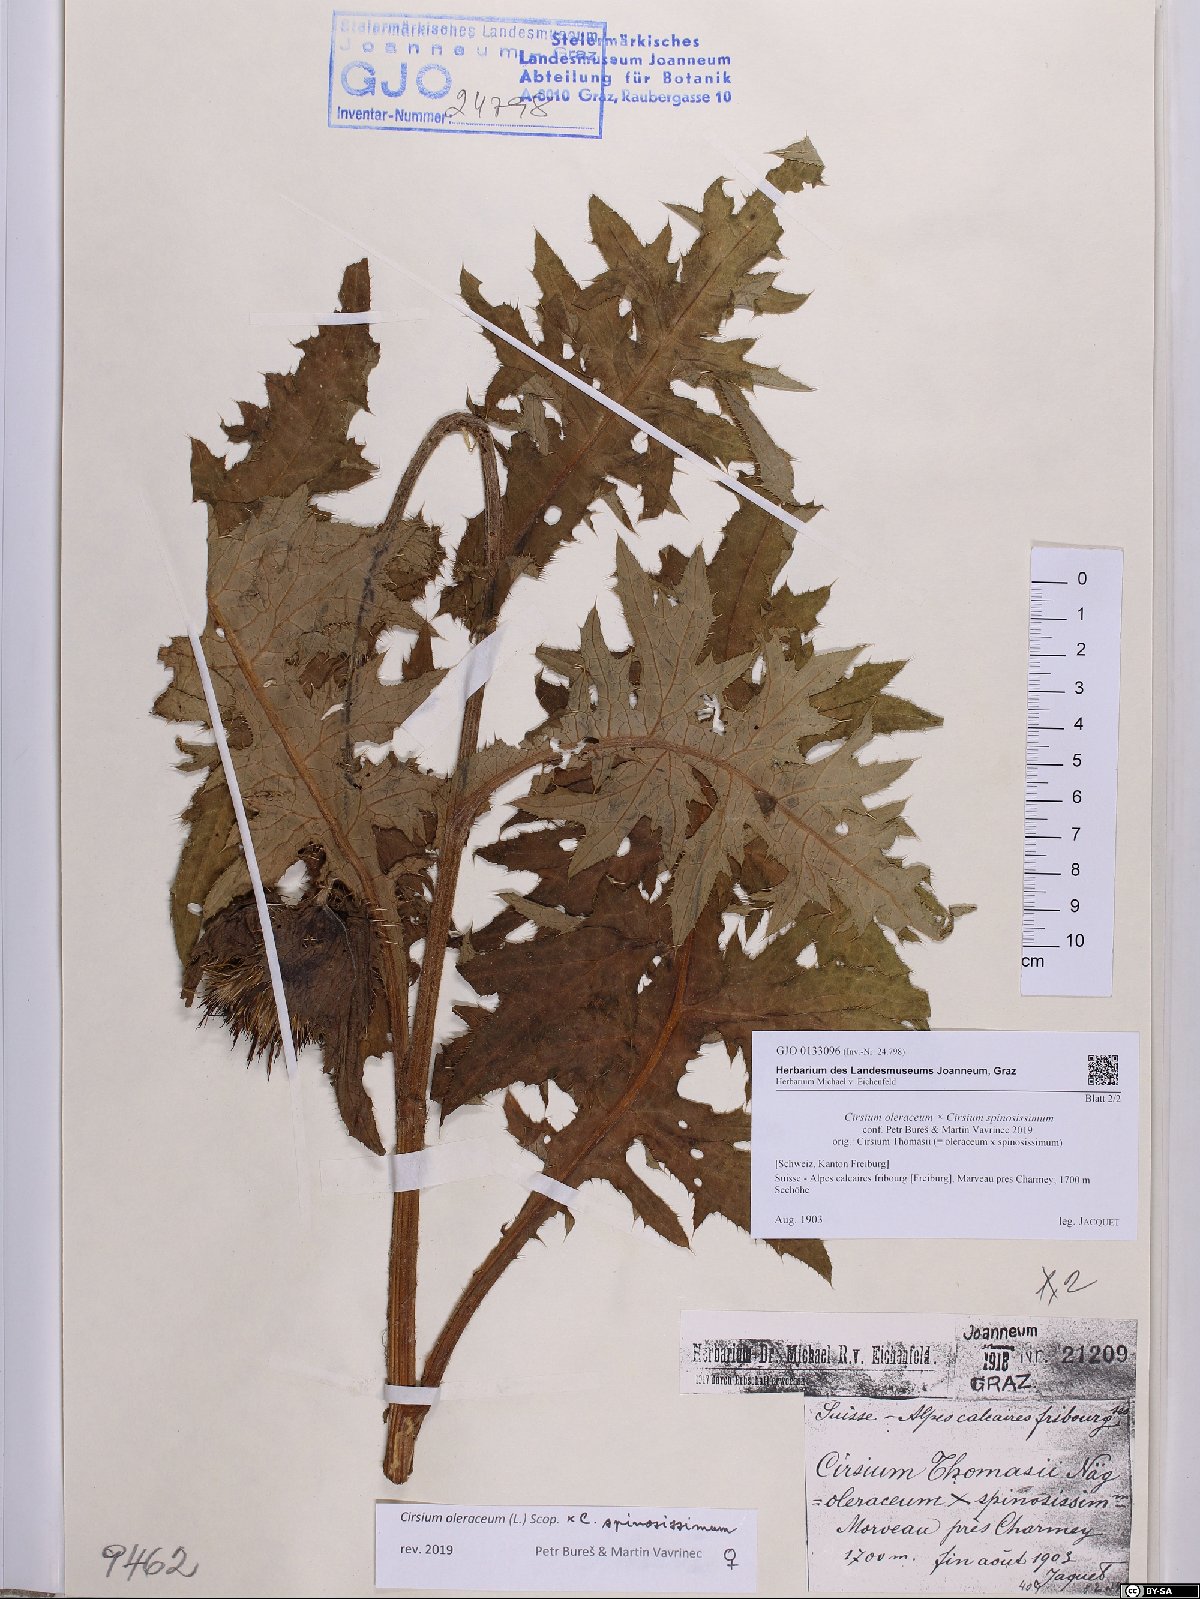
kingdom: Plantae
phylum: Tracheophyta
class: Magnoliopsida
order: Asterales
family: Asteraceae
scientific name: Asteraceae
